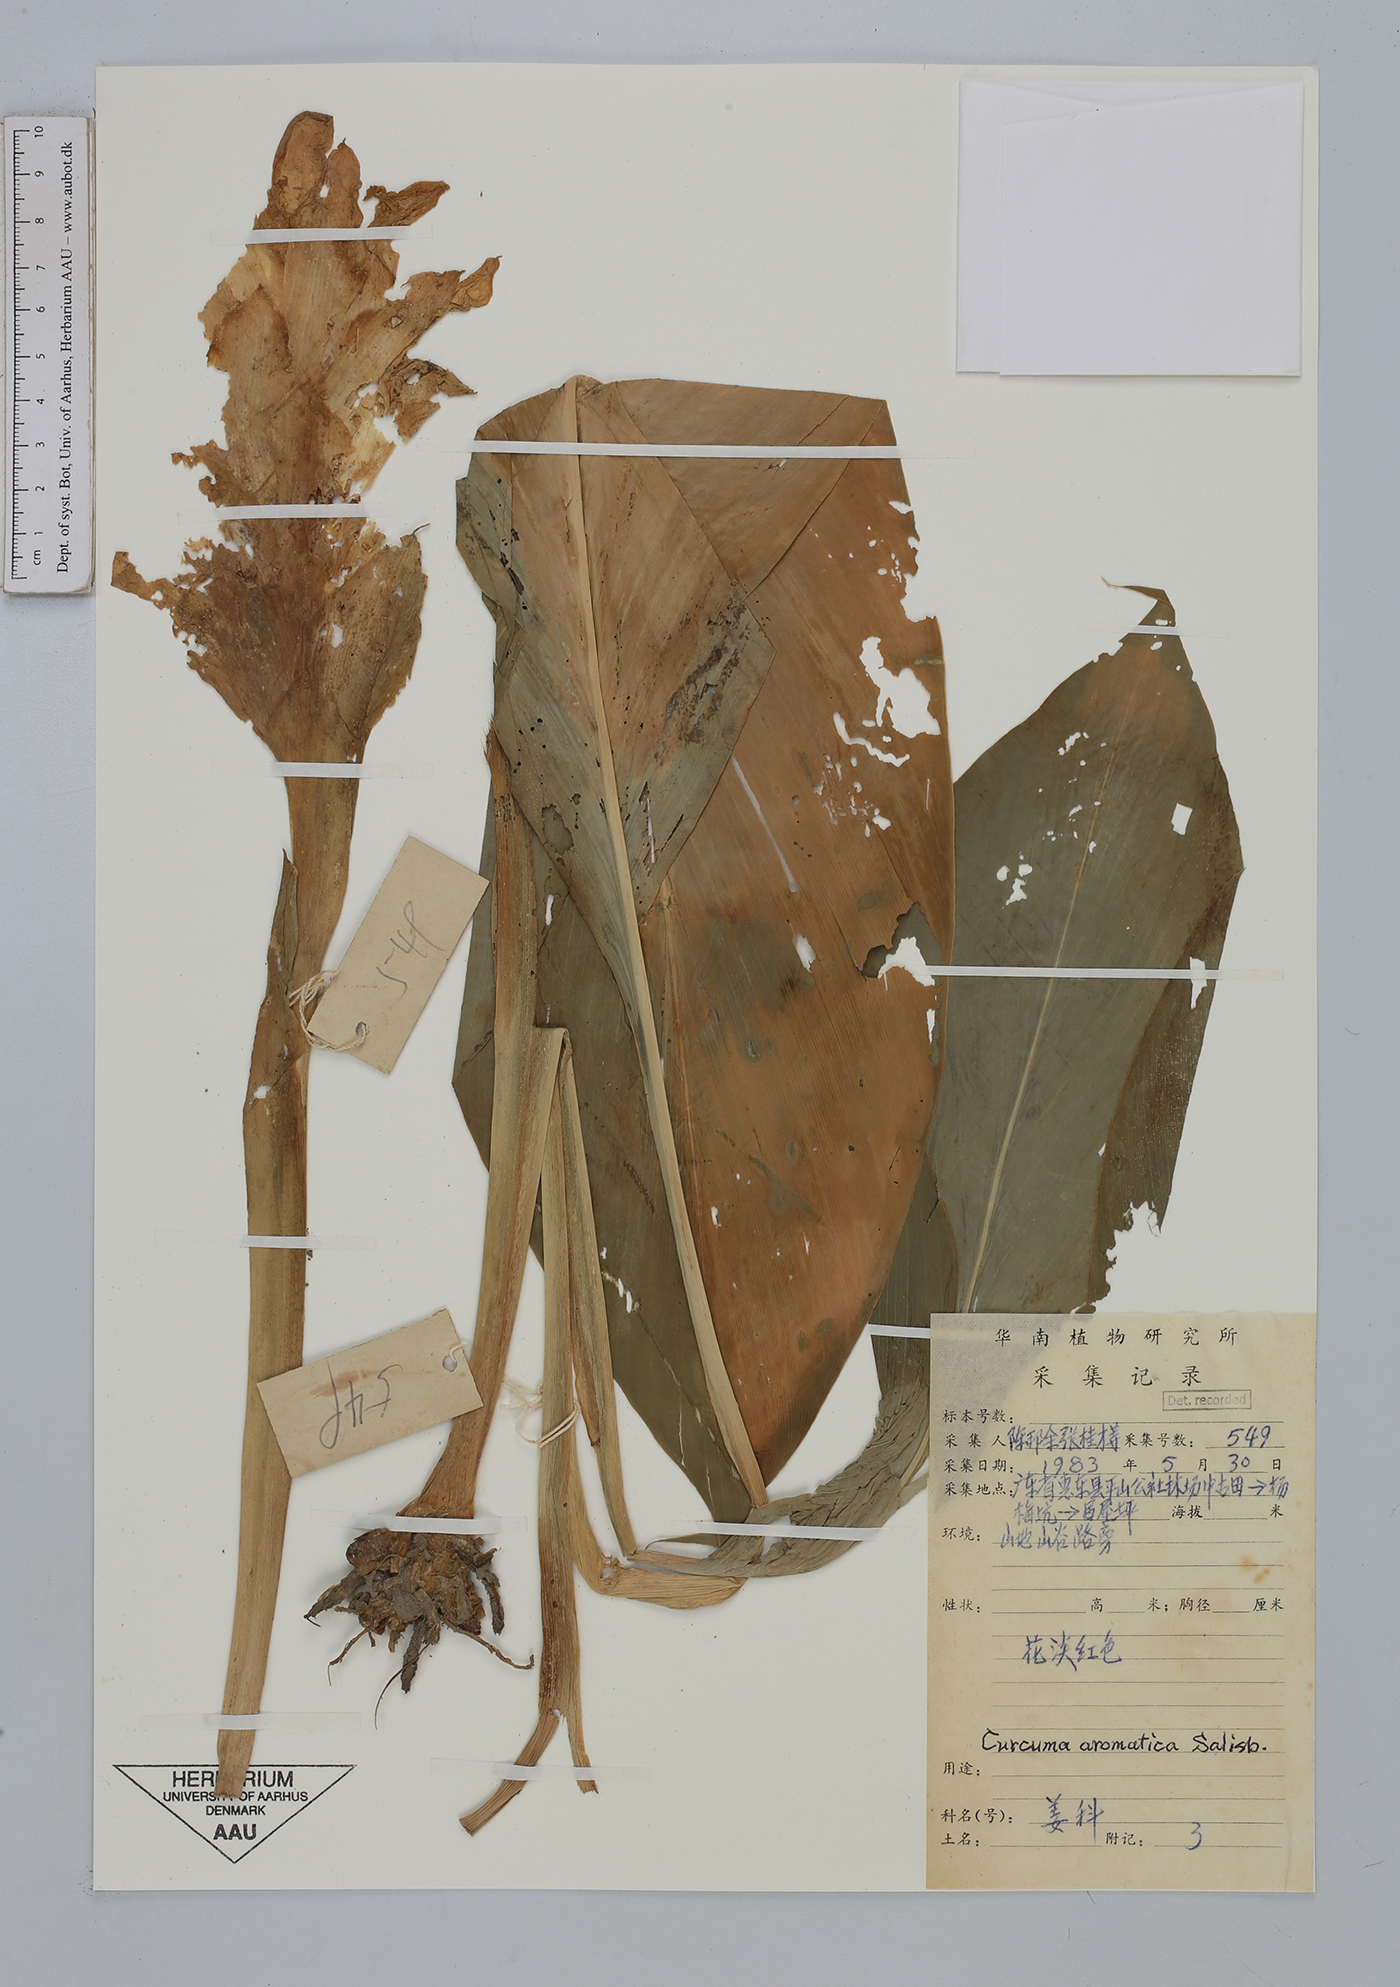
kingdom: Plantae
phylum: Tracheophyta
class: Liliopsida
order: Zingiberales
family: Zingiberaceae
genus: Curcuma
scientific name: Curcuma aromatica
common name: Wild turmeric
